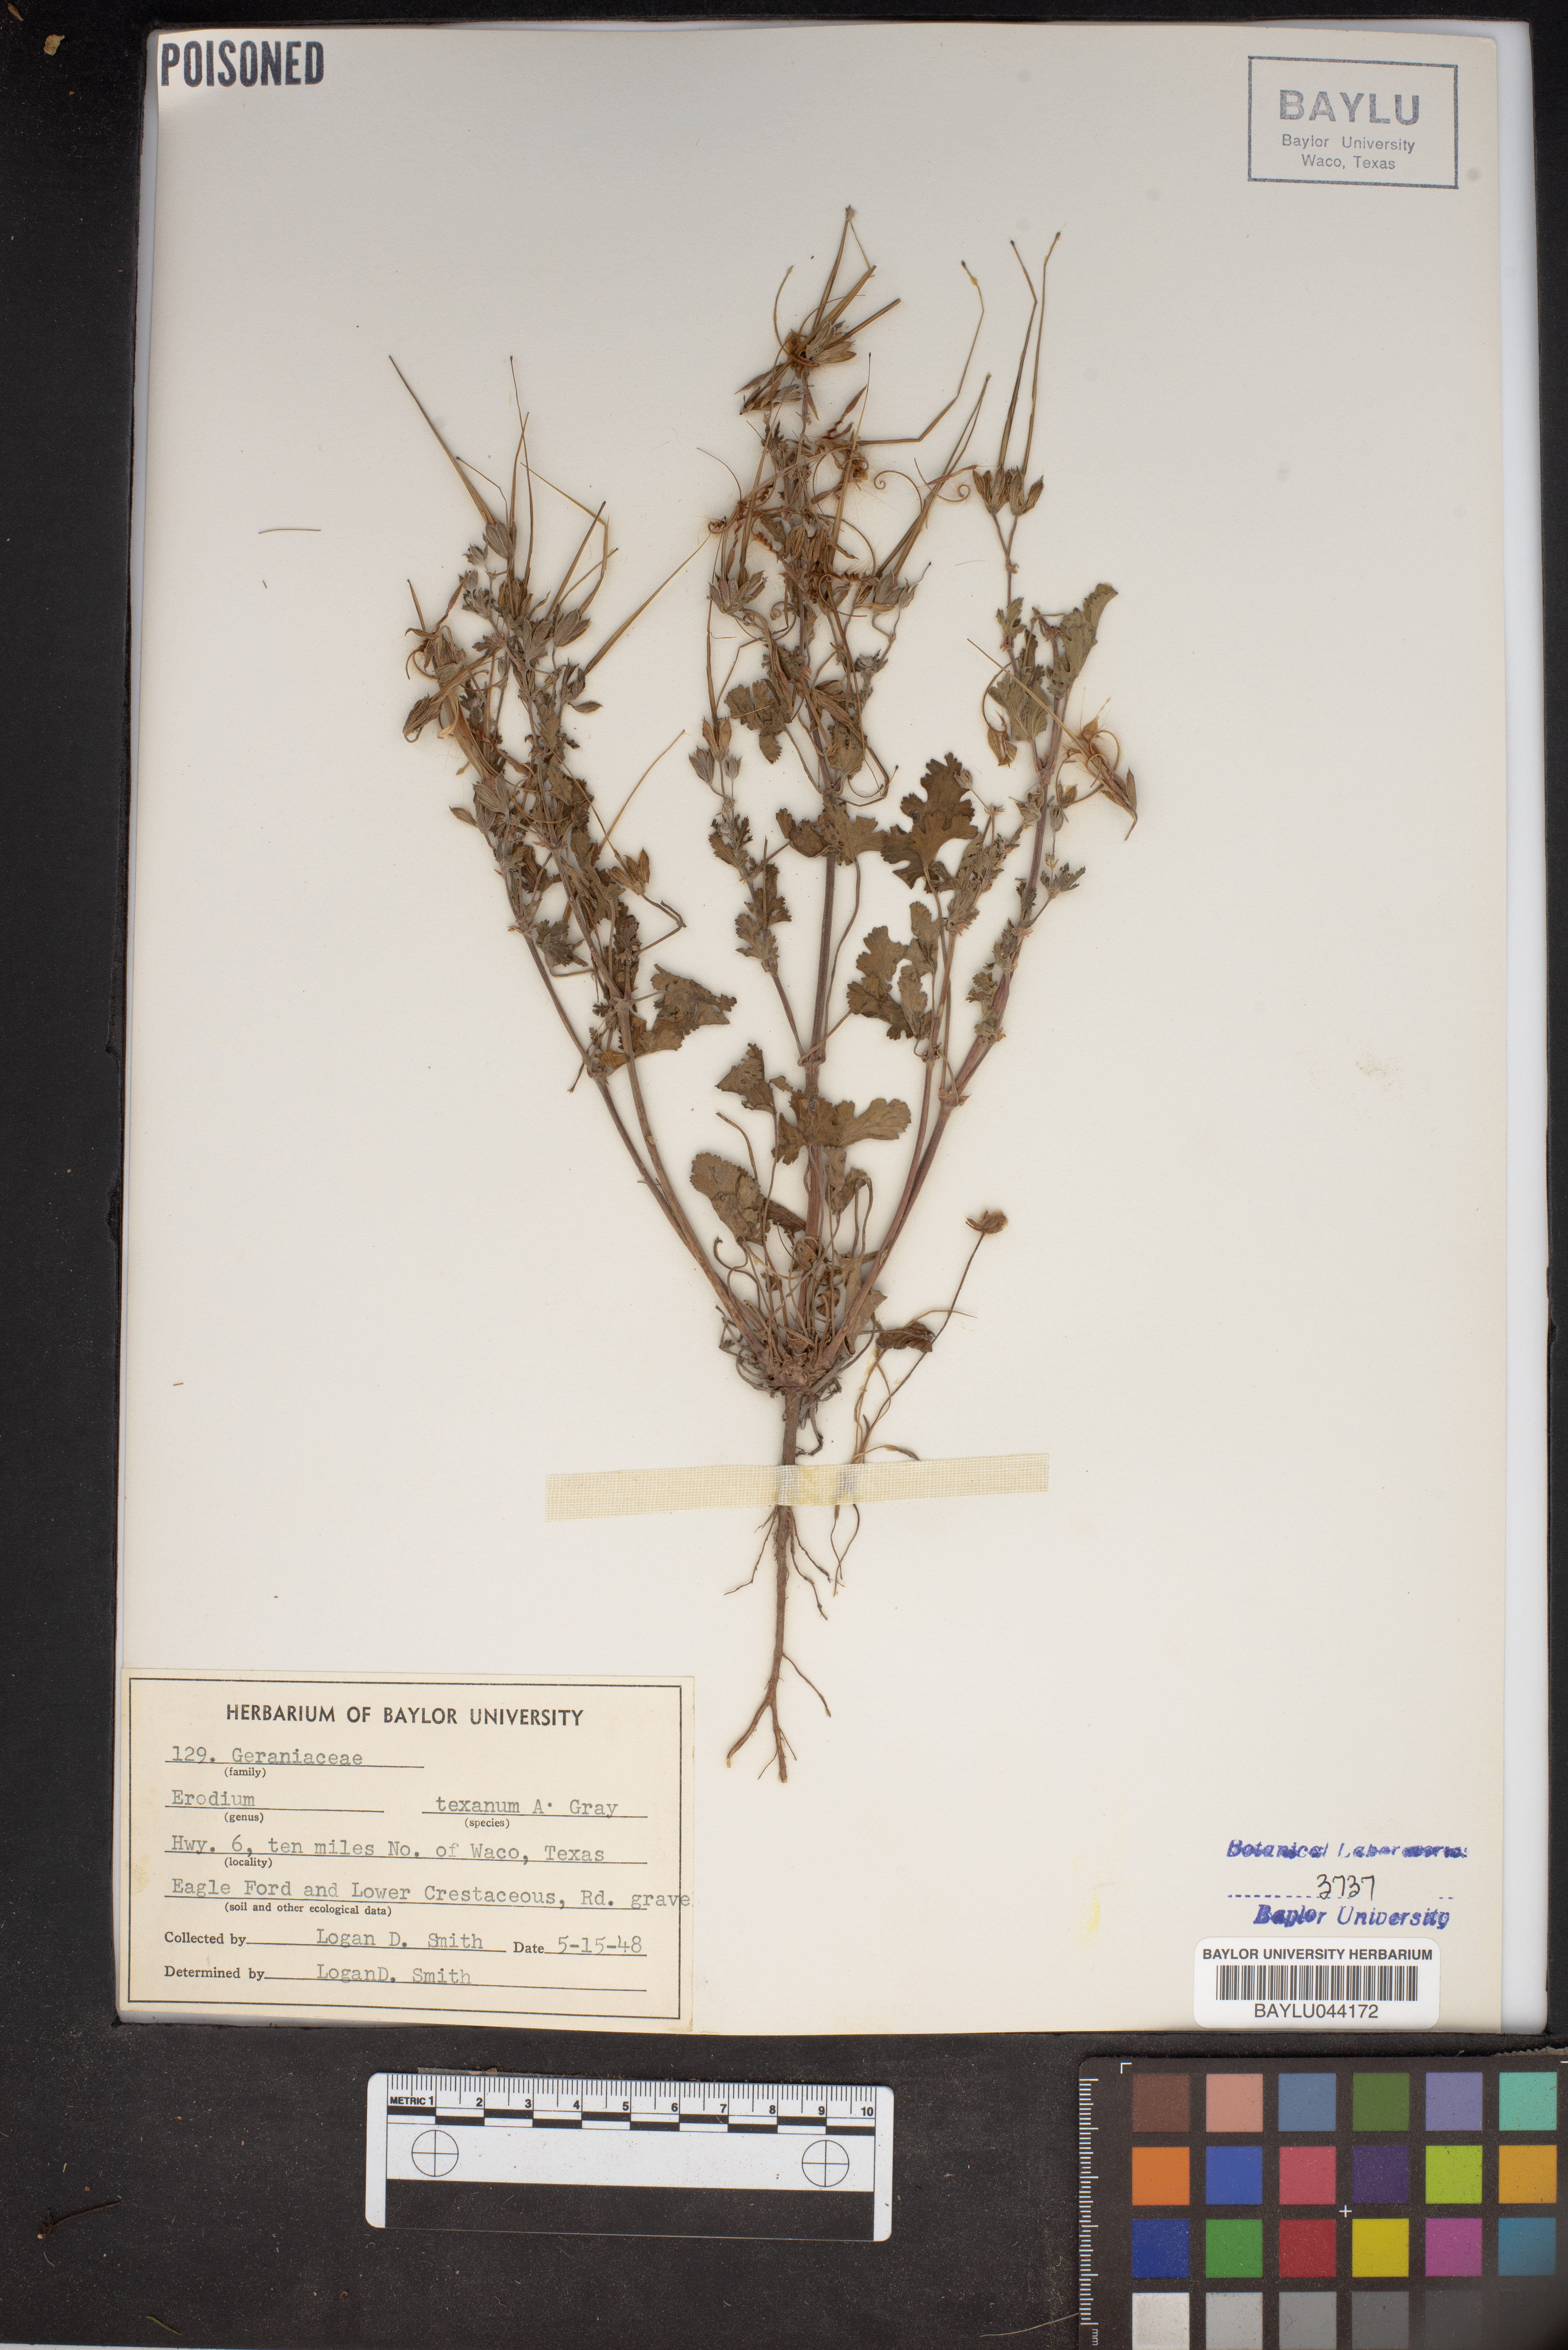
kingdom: Plantae
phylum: Tracheophyta
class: Magnoliopsida
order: Geraniales
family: Geraniaceae
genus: Erodium
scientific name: Erodium texanum
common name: Texas stork's-bill
